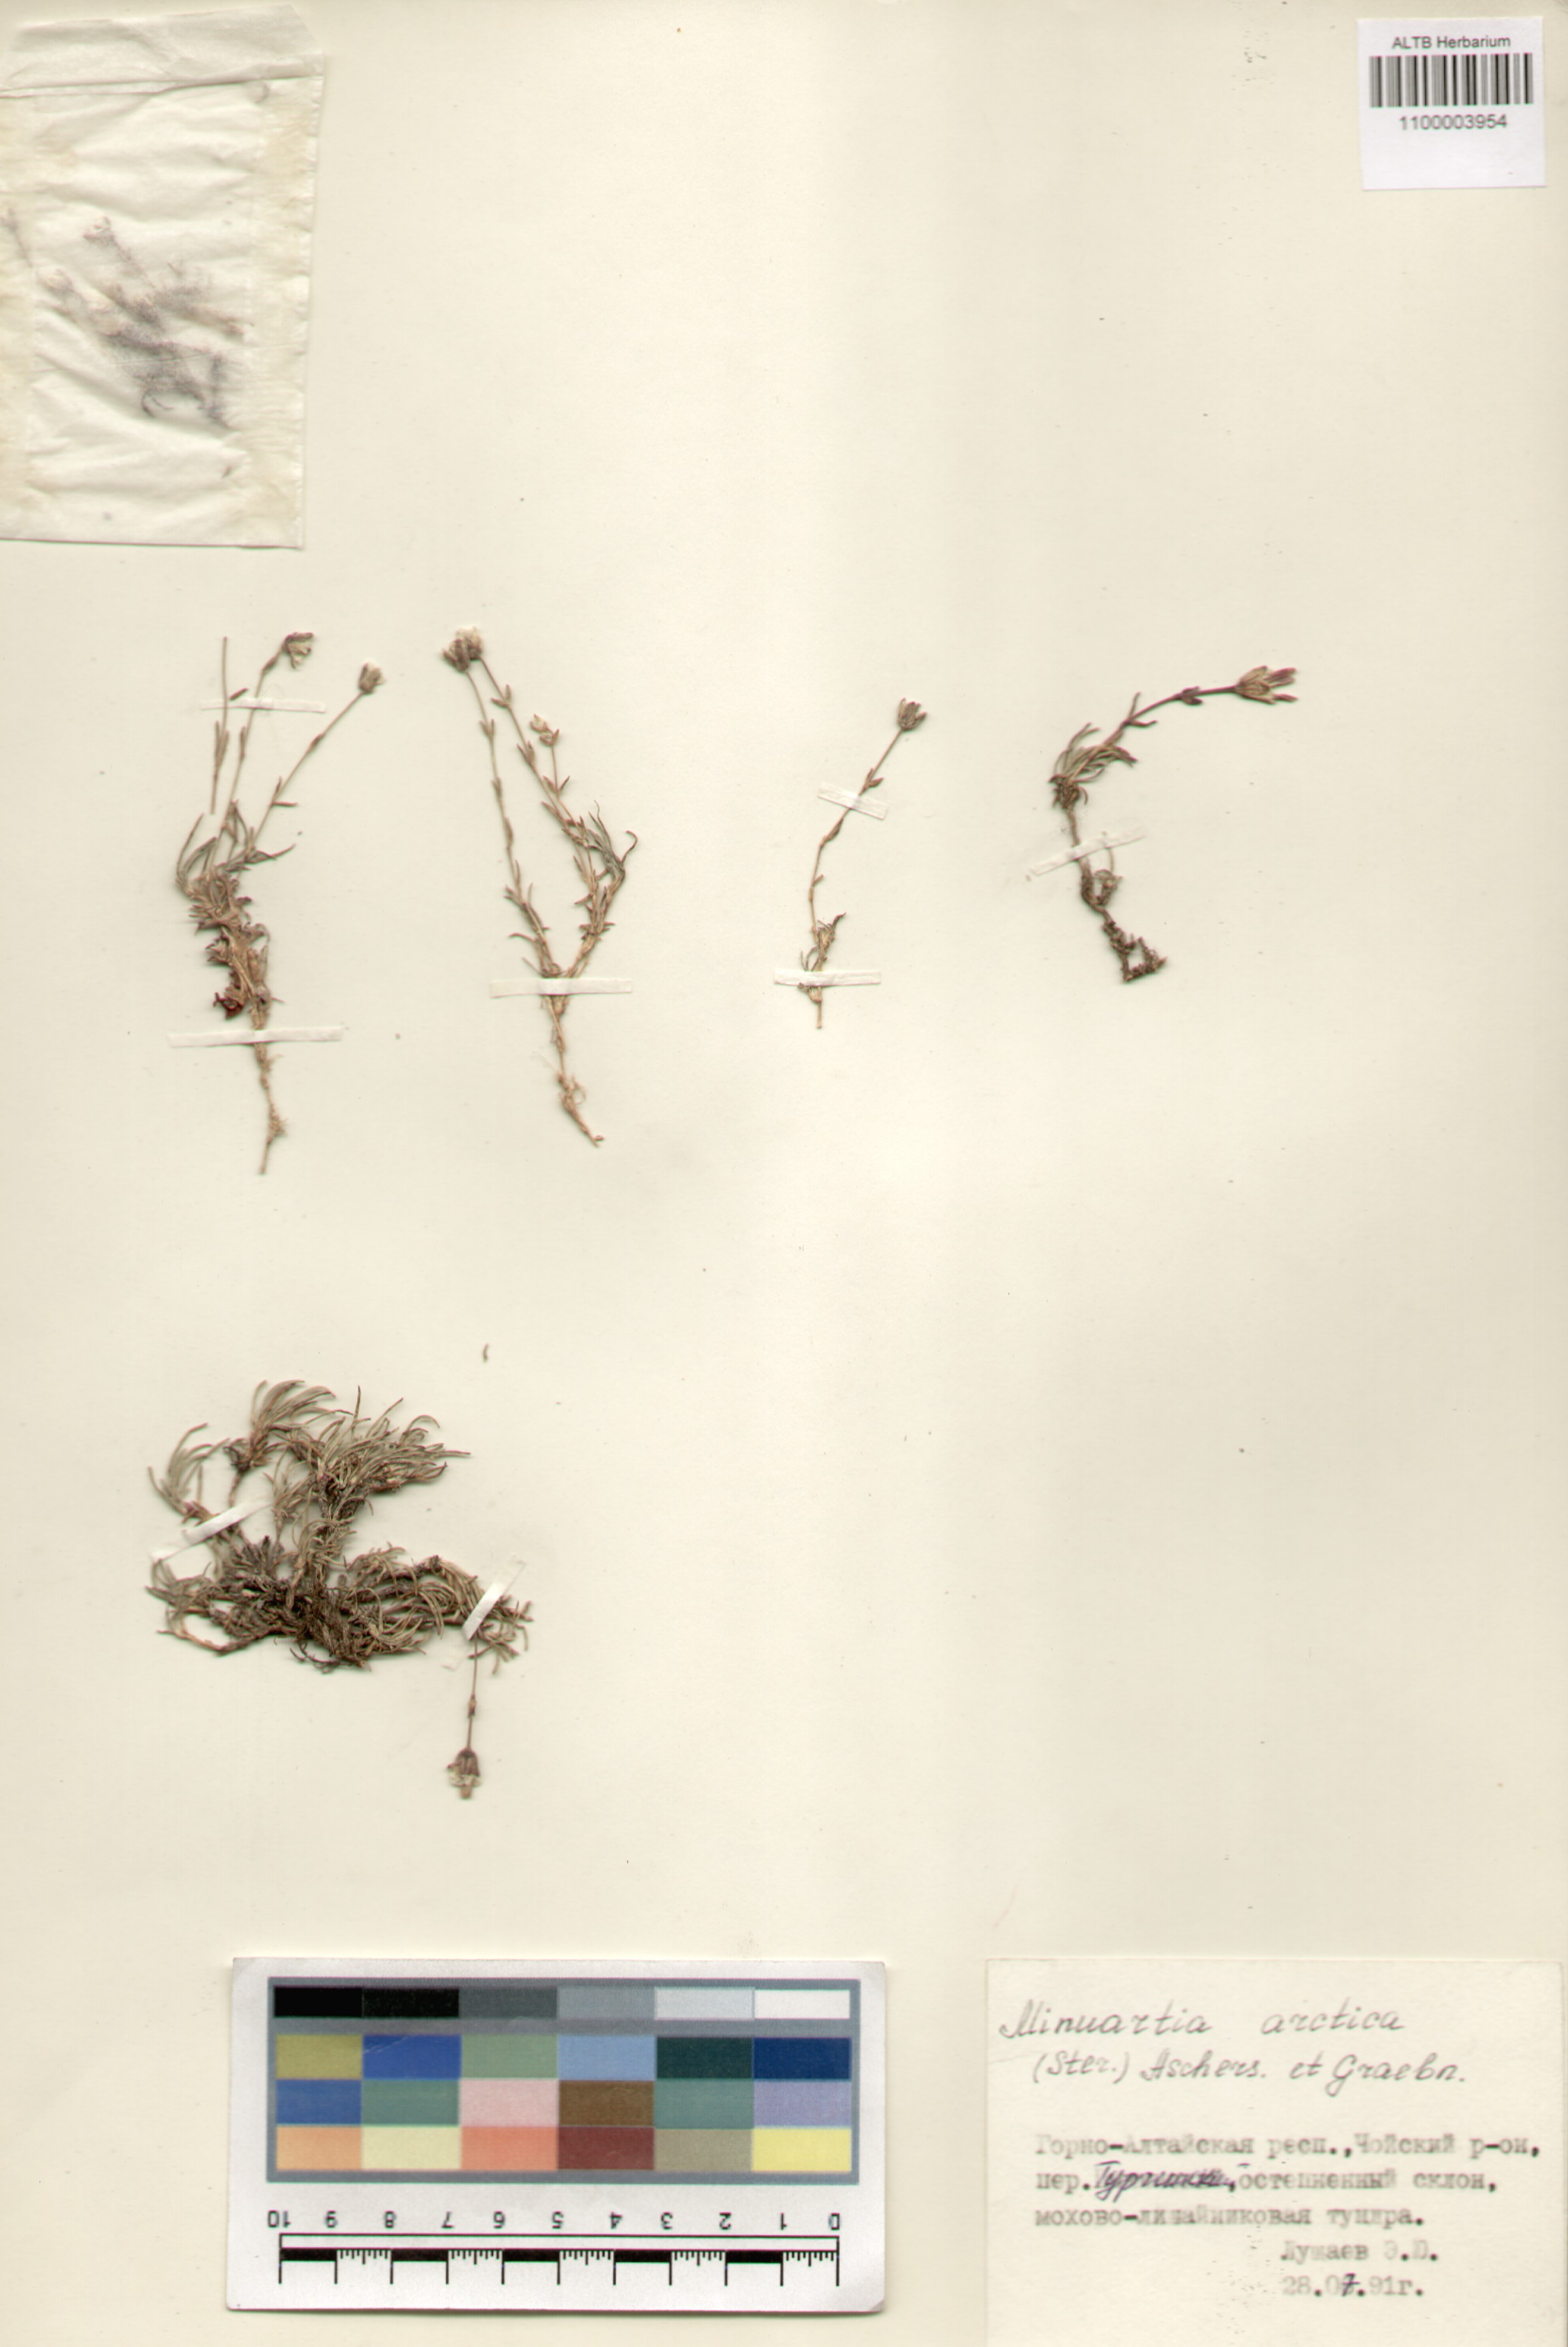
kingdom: Plantae
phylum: Tracheophyta
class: Magnoliopsida
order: Caryophyllales
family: Caryophyllaceae
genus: Cherleria
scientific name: Cherleria arctica
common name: Arctic sandwort
